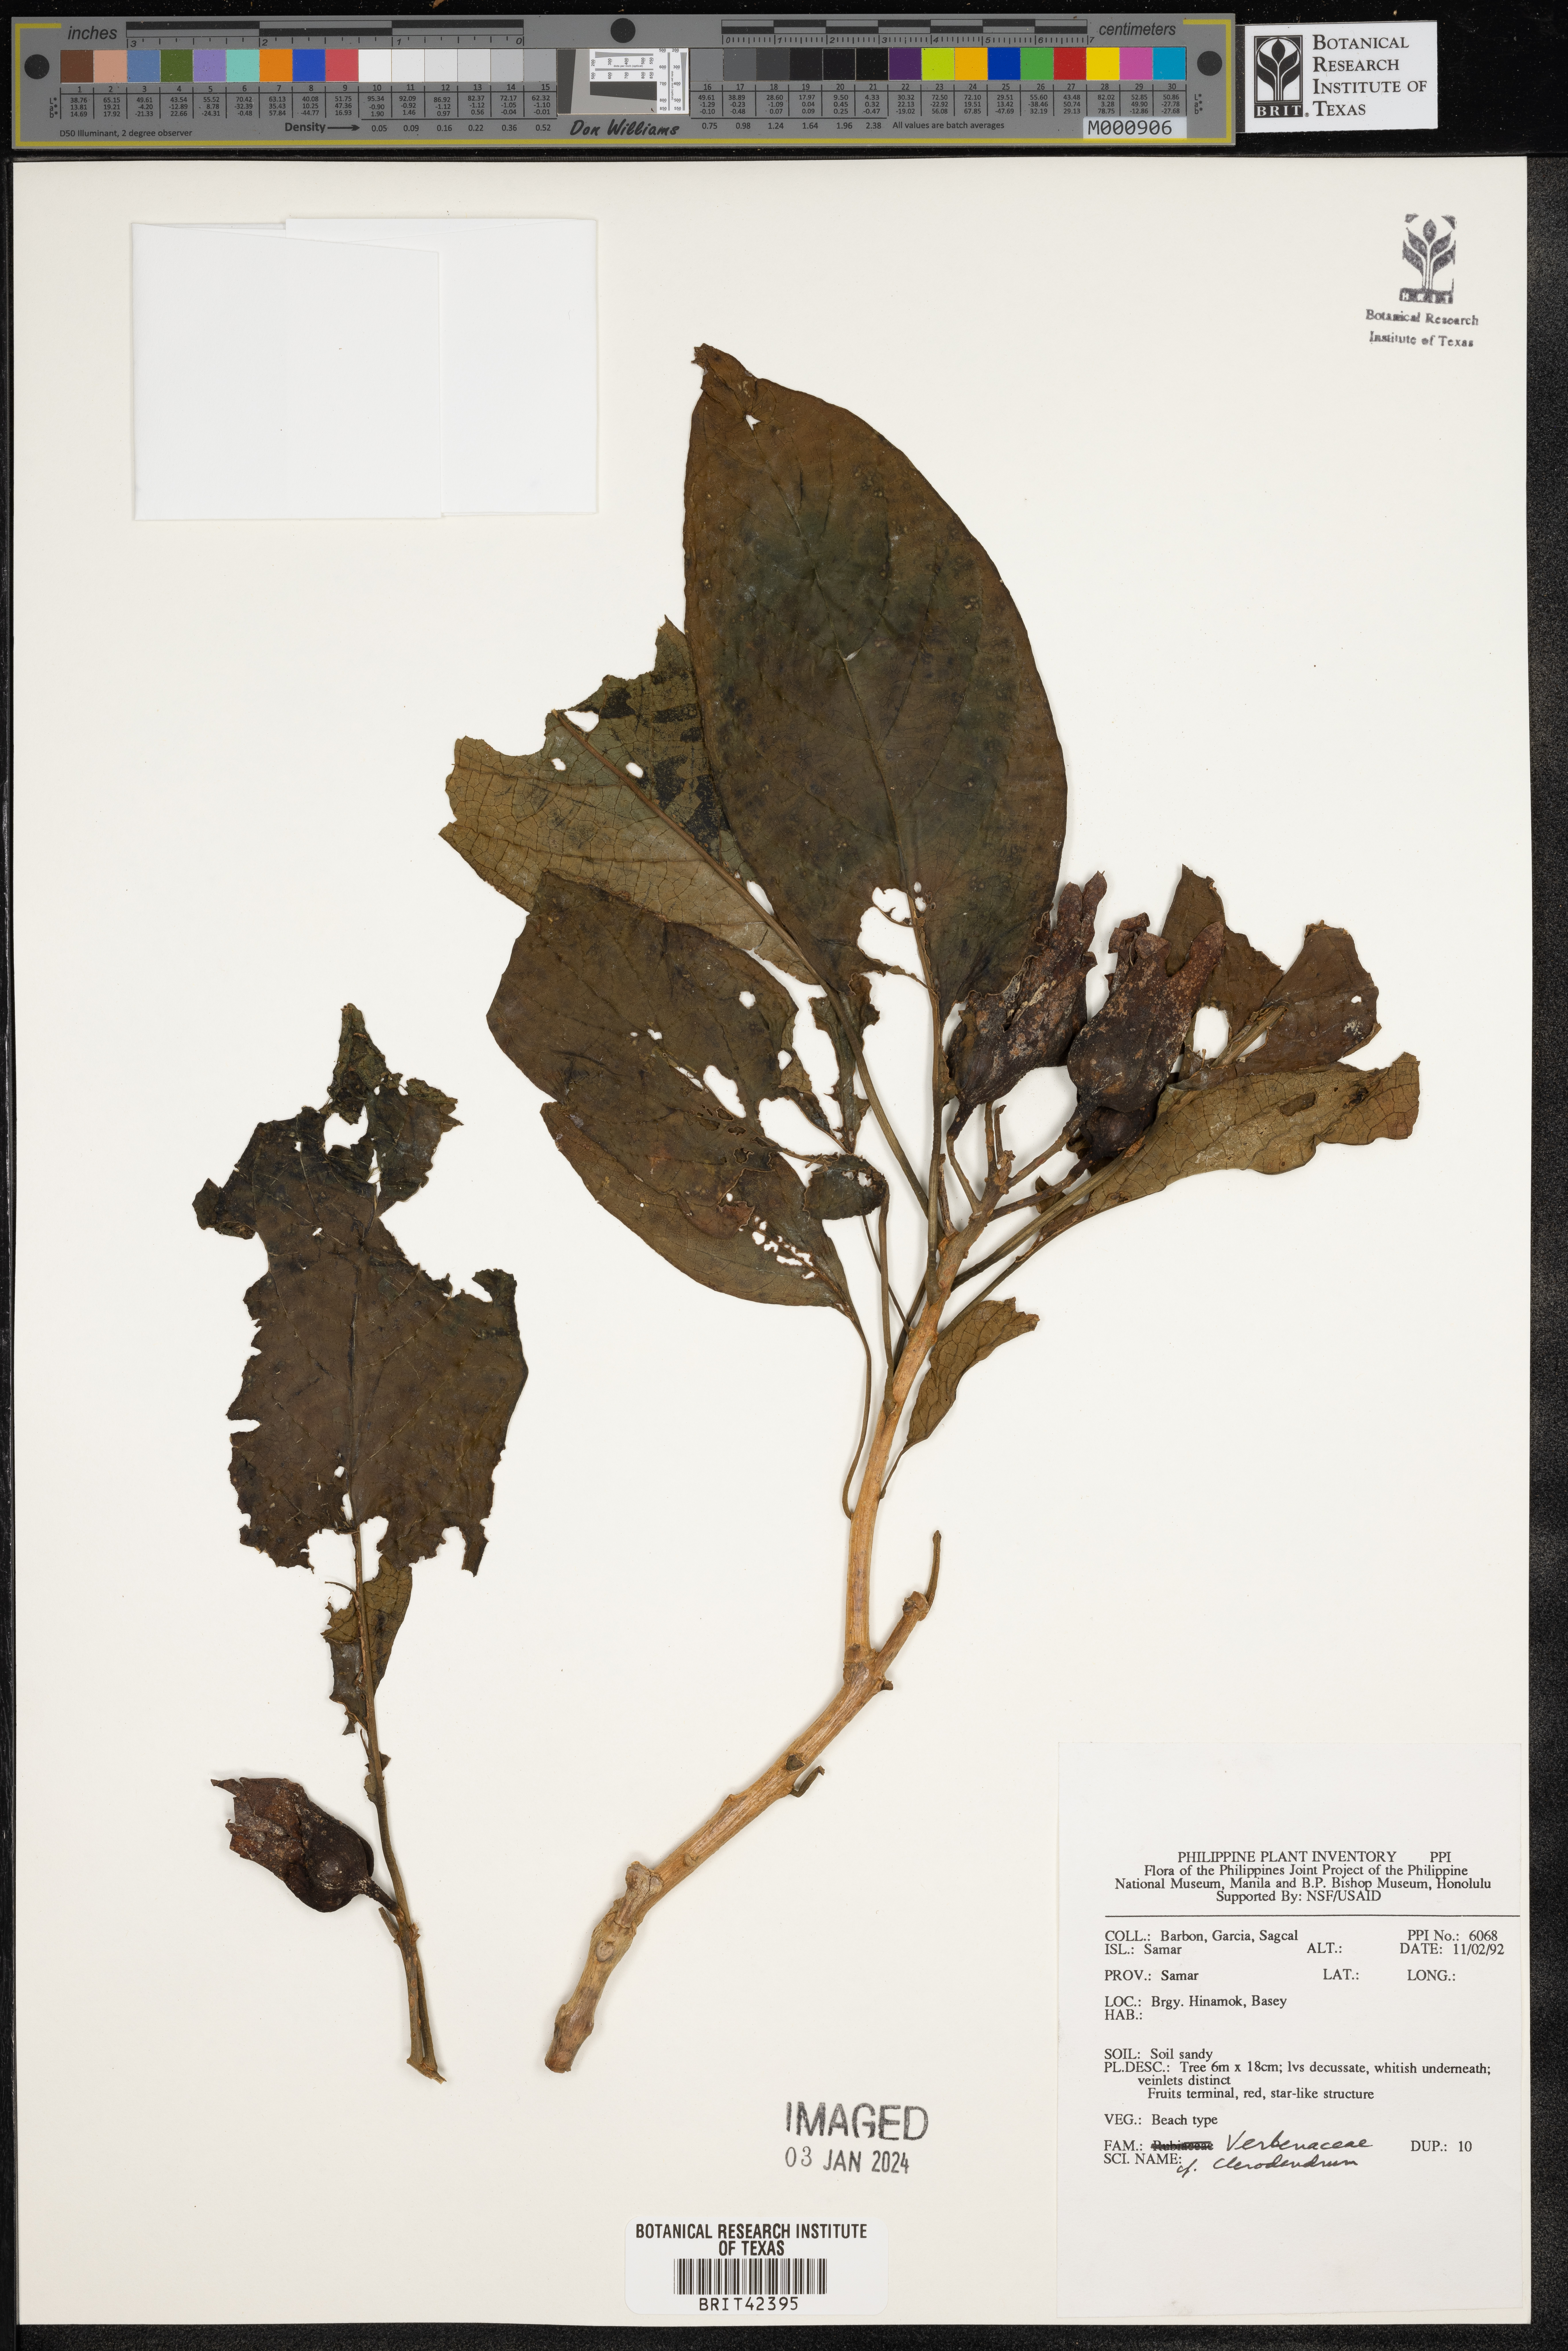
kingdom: Plantae
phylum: Tracheophyta
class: Magnoliopsida
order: Lamiales
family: Lamiaceae
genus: Clerodendrum
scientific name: Clerodendrum
